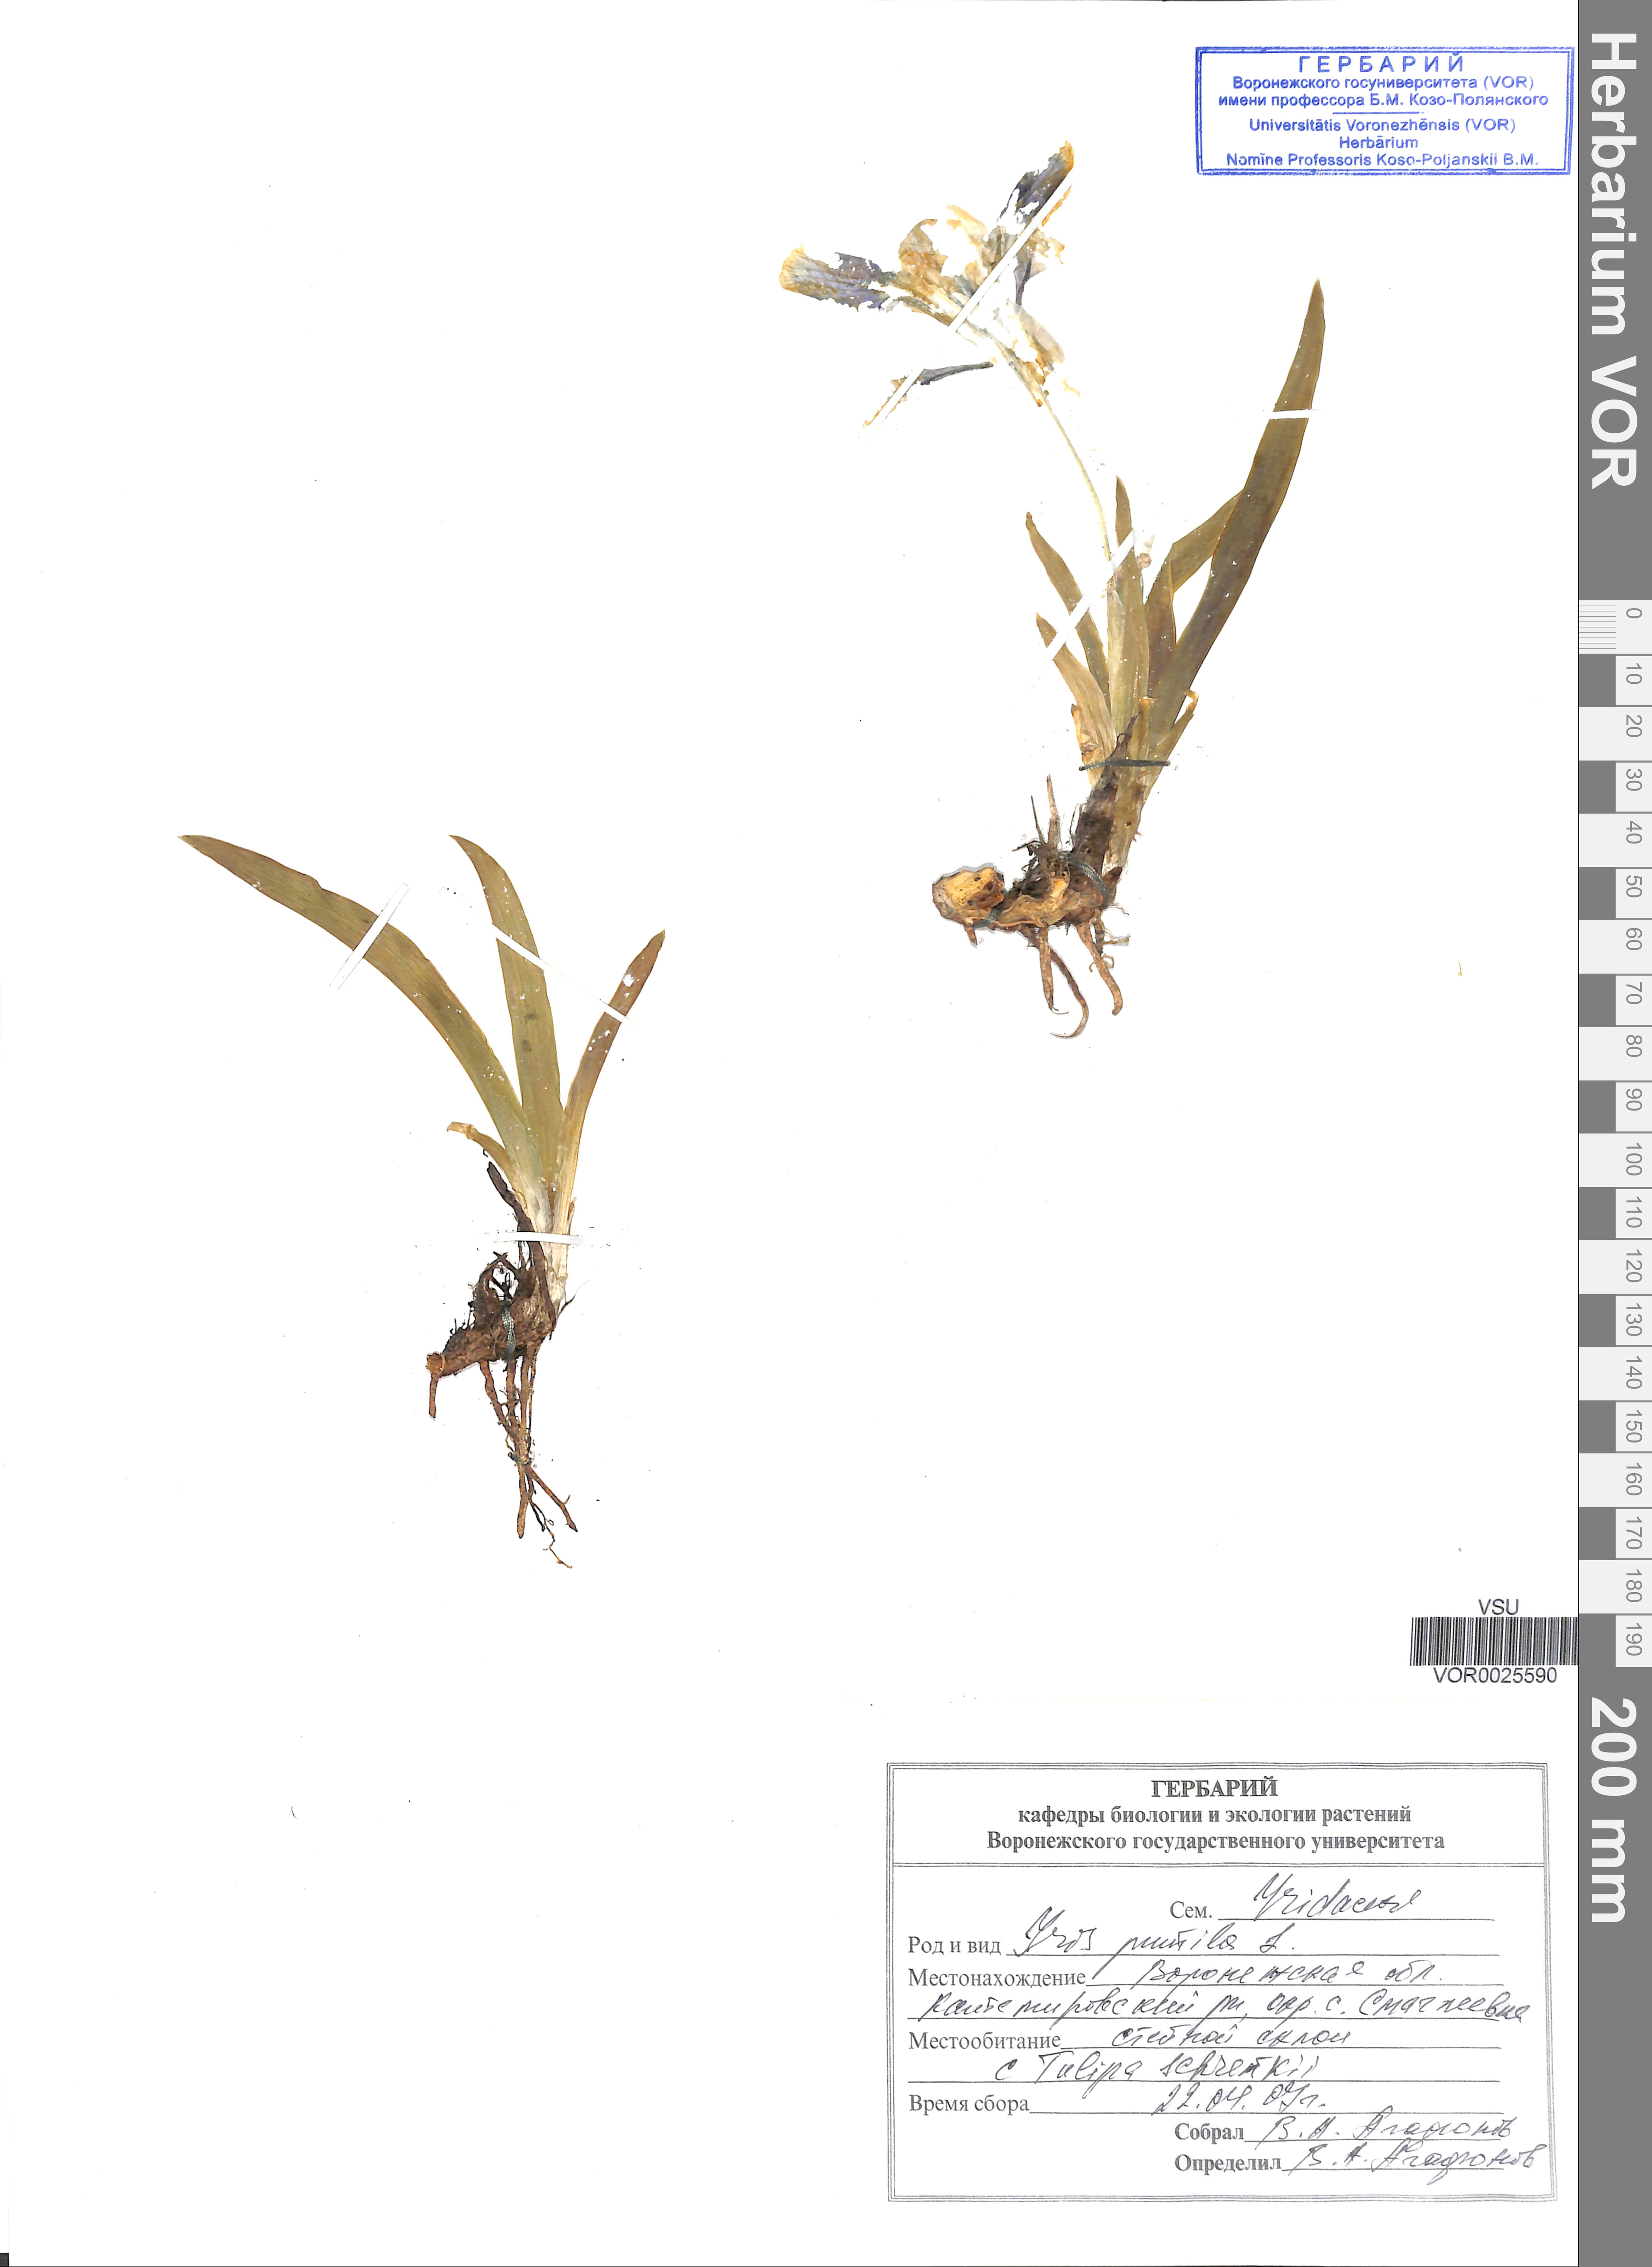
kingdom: Plantae
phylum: Tracheophyta
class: Liliopsida
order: Asparagales
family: Iridaceae
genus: Iris
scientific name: Iris pumila
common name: Dwarf iris
